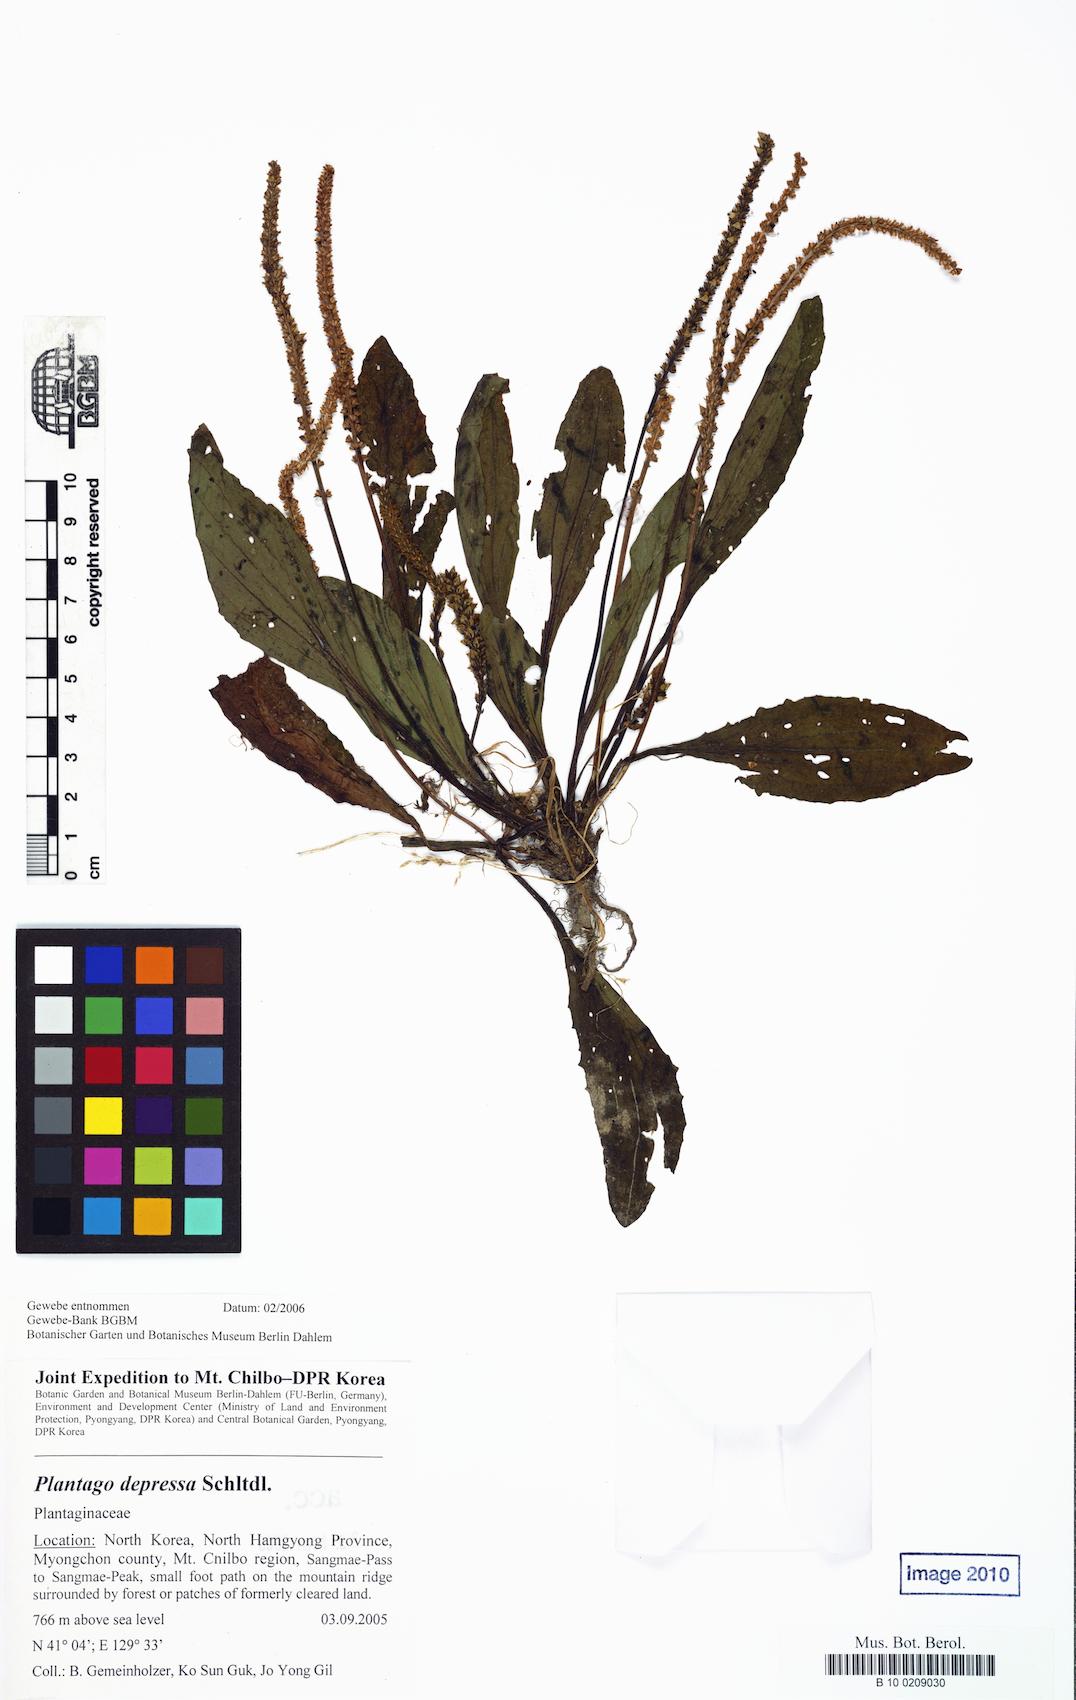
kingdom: Plantae
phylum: Tracheophyta
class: Magnoliopsida
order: Lamiales
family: Plantaginaceae
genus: Plantago
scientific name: Plantago depressa
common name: Depressed plantain
